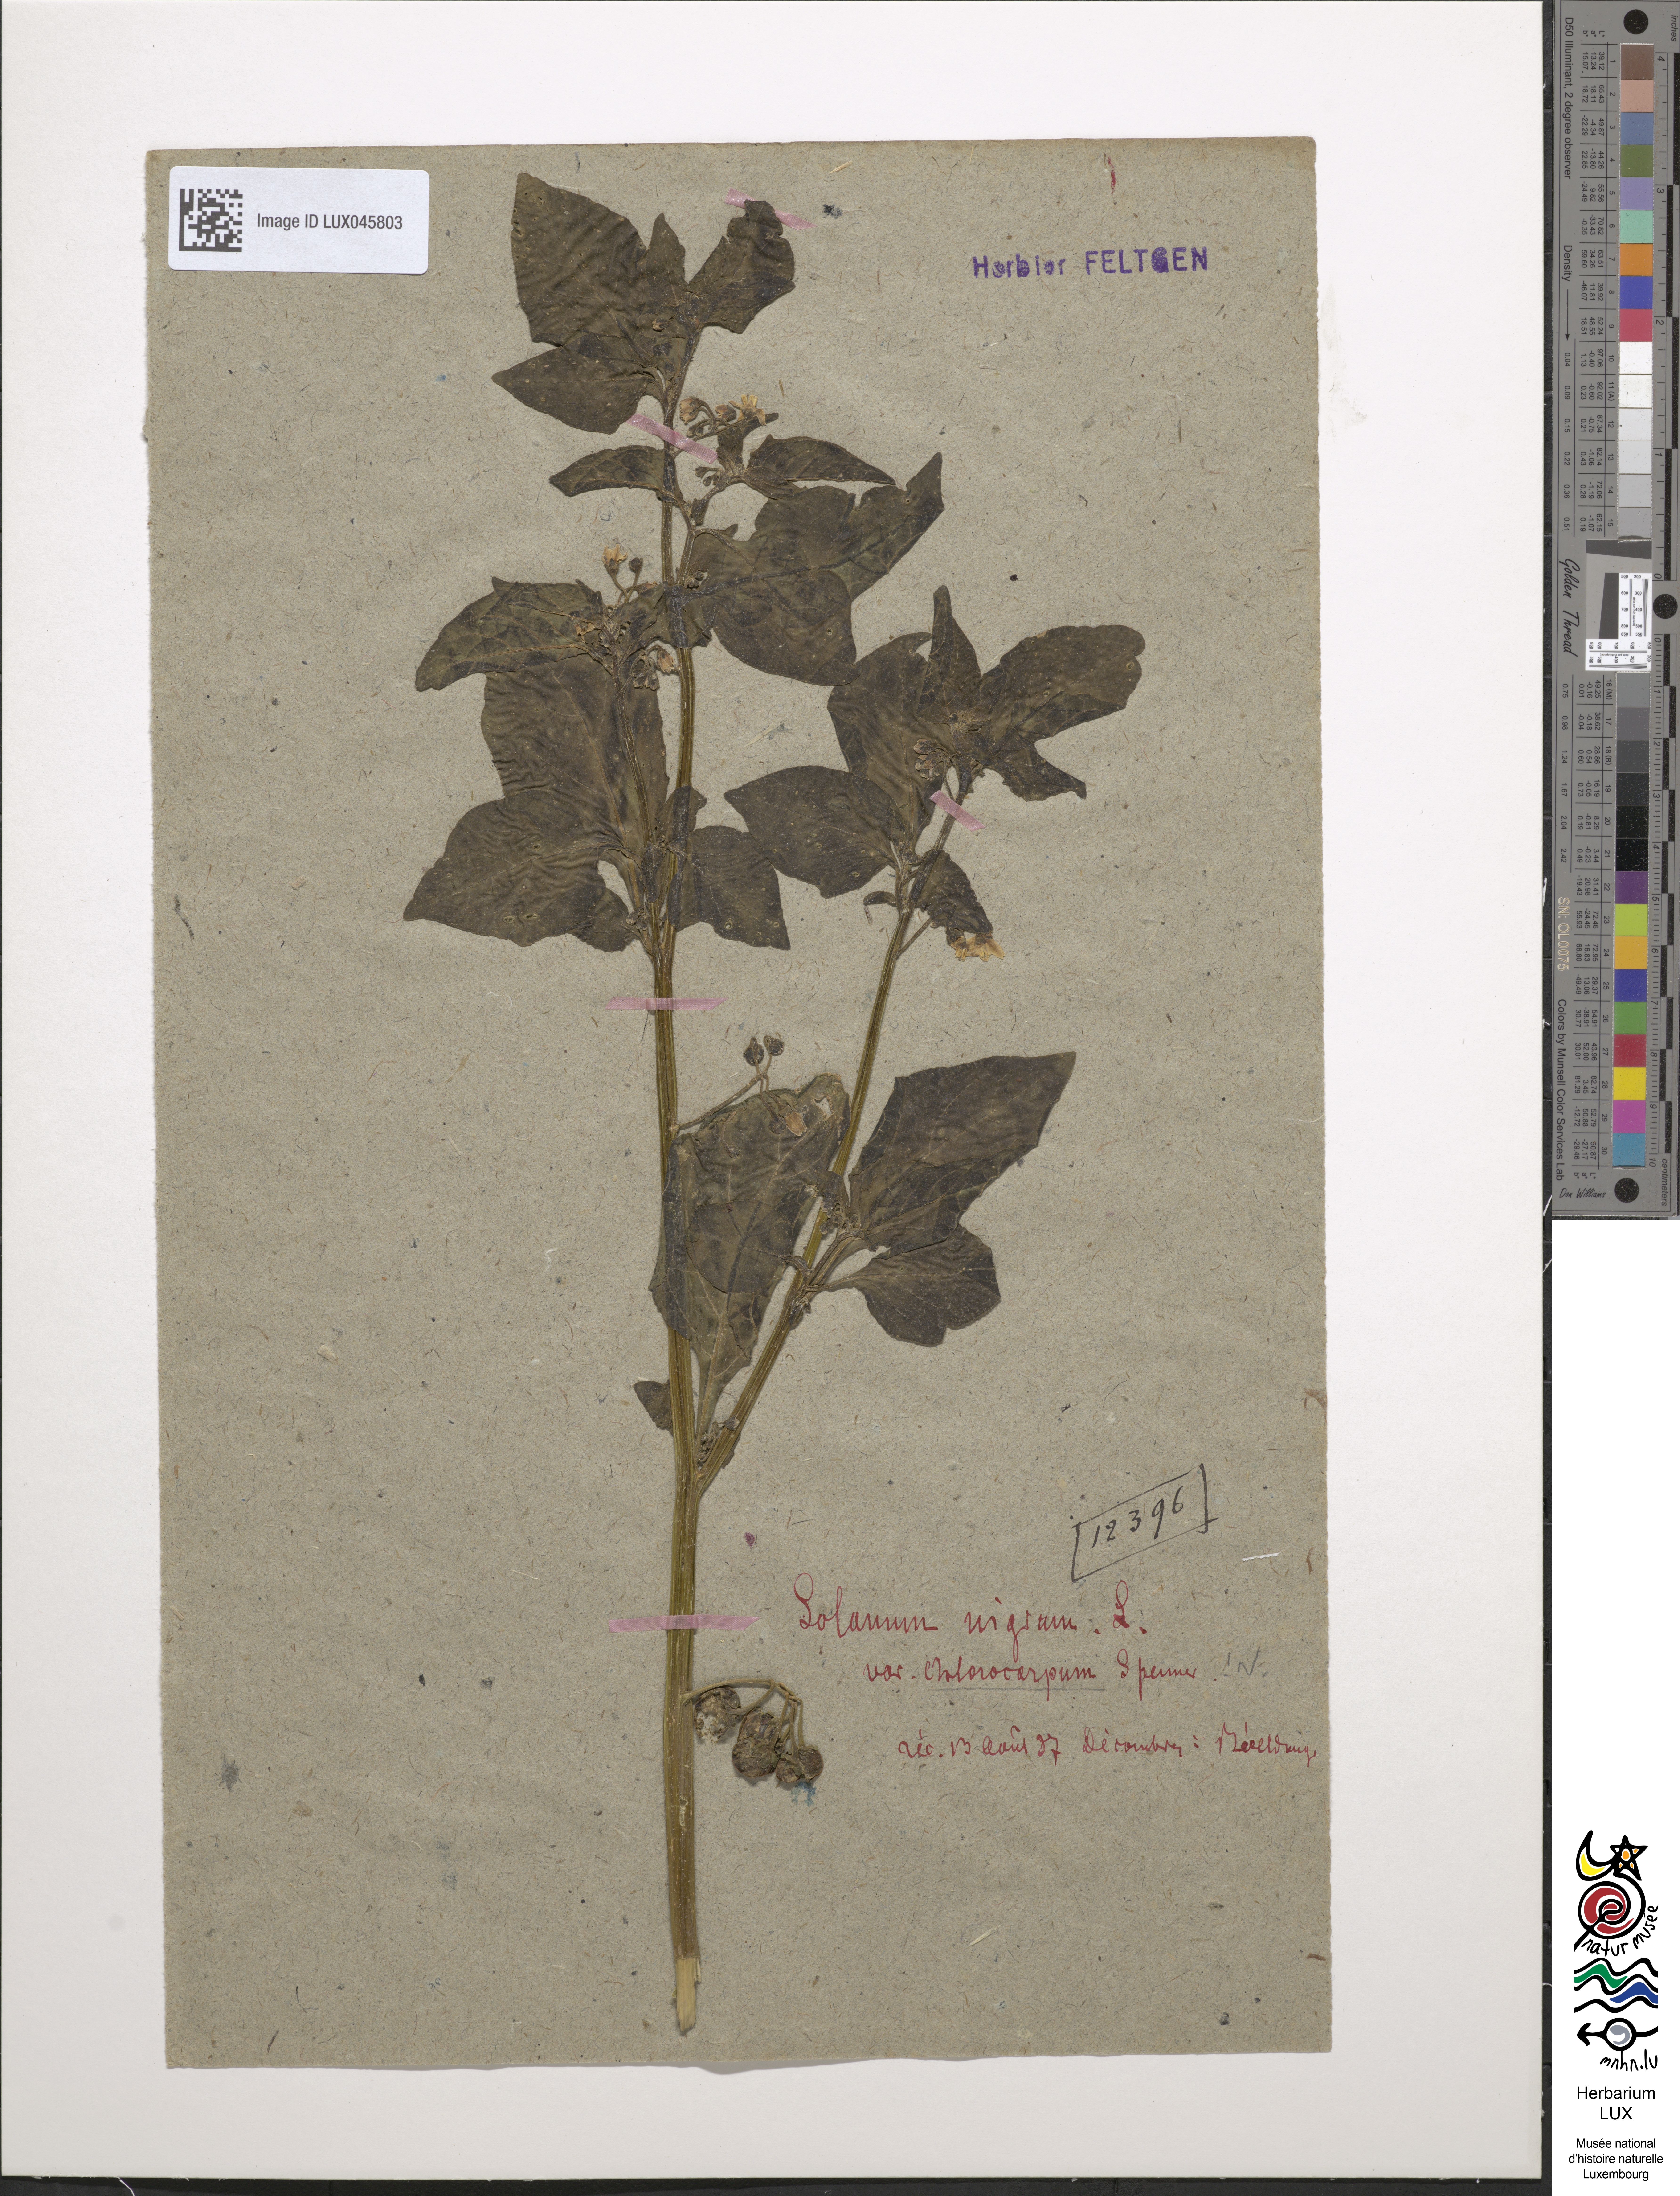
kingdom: Plantae
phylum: Tracheophyta
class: Magnoliopsida
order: Solanales
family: Solanaceae
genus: Solanum
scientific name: Solanum nigrum
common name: Black nightshade
